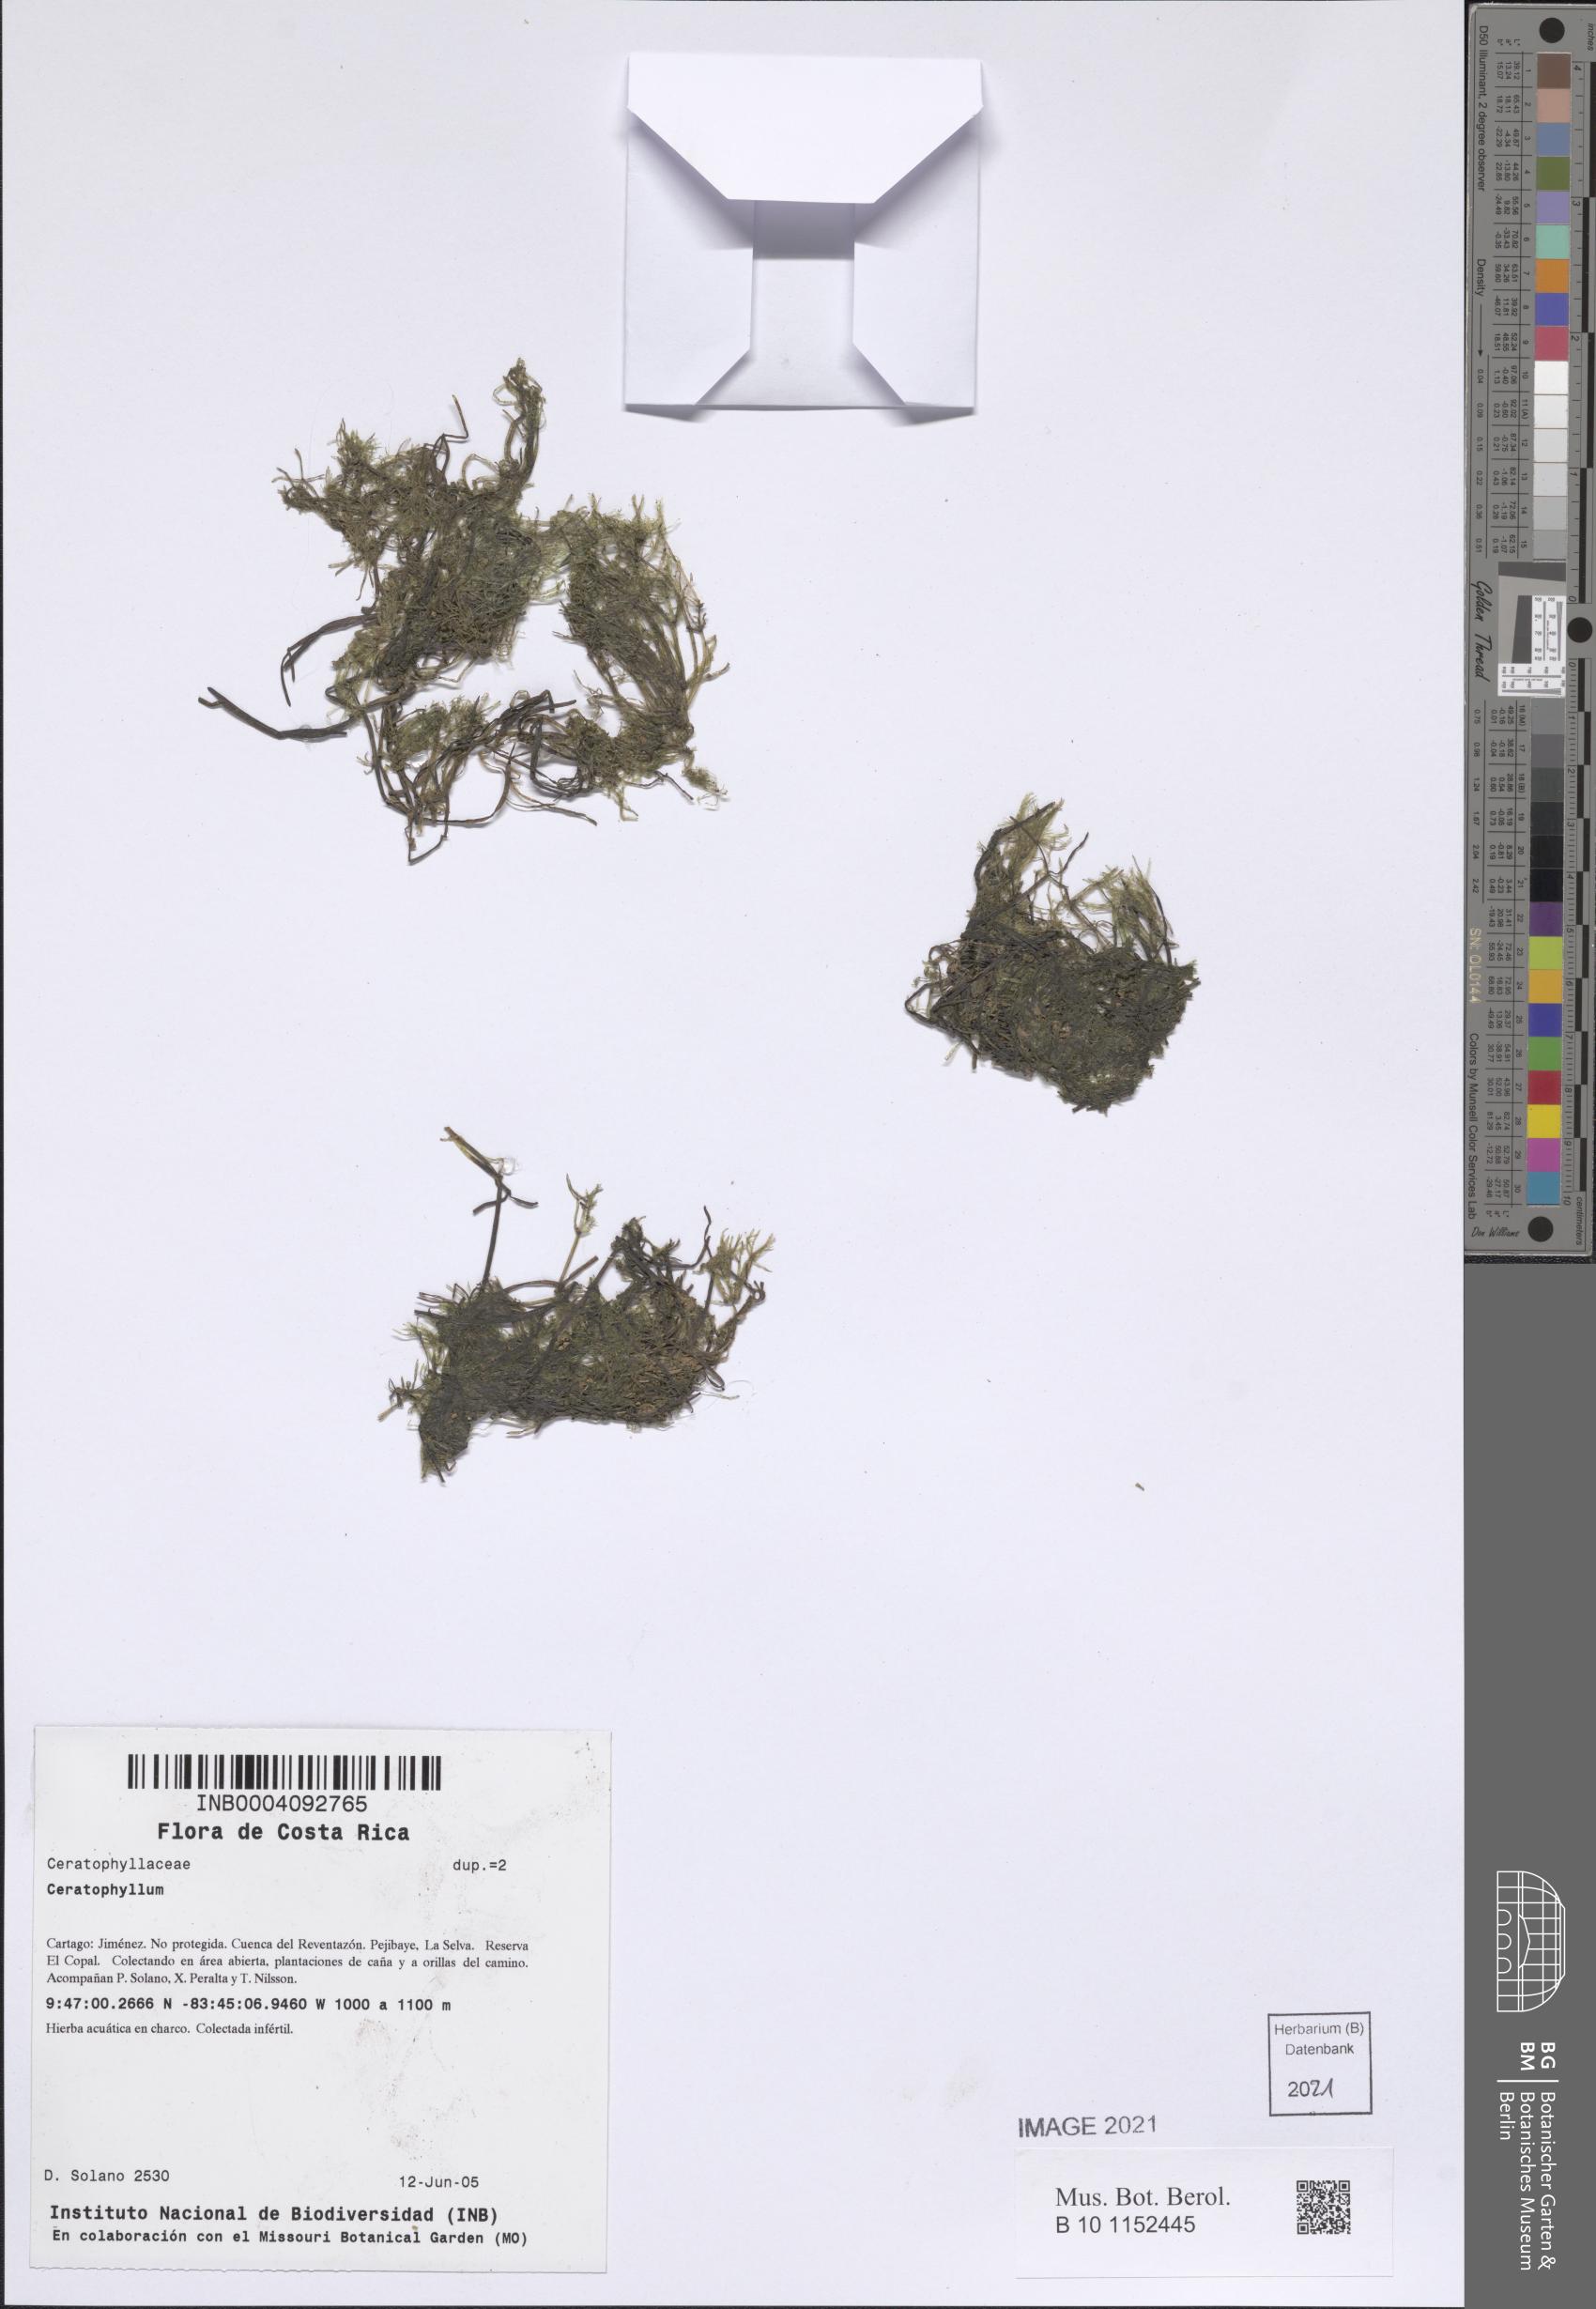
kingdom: Plantae
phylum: Tracheophyta
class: Magnoliopsida
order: Ceratophyllales
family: Ceratophyllaceae
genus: Ceratophyllum
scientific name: Ceratophyllum
